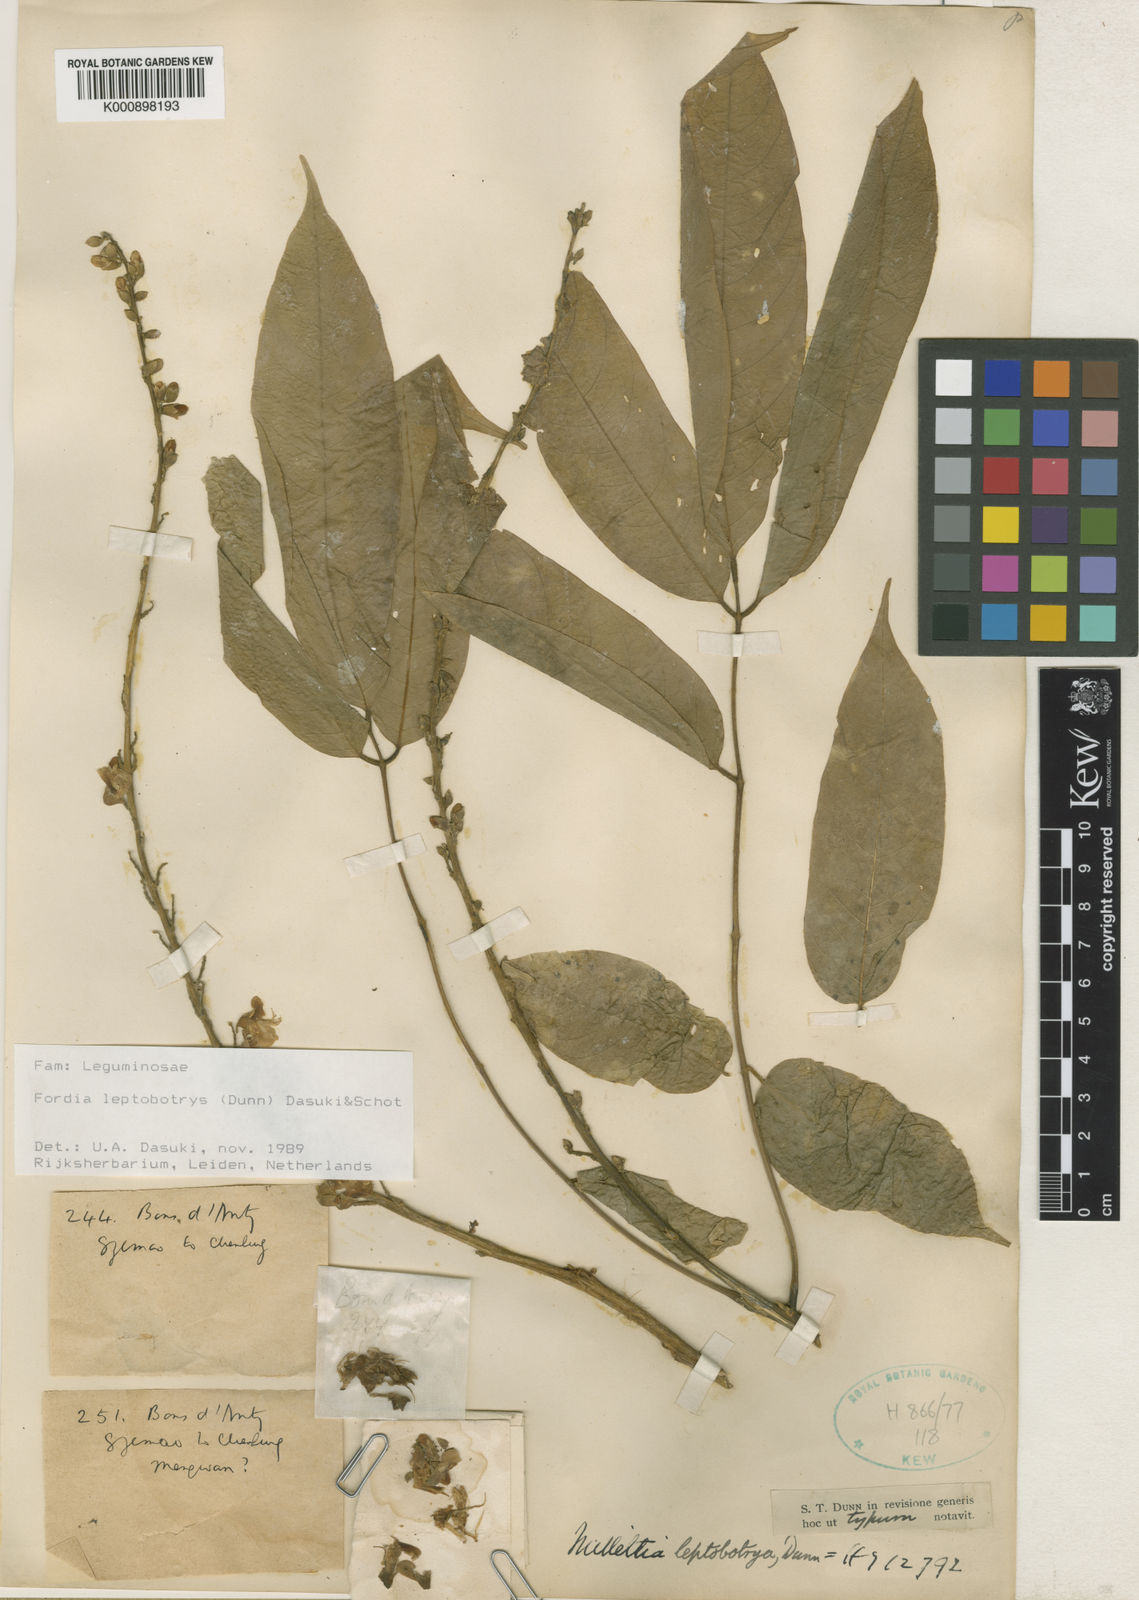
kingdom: Plantae
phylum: Tracheophyta
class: Magnoliopsida
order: Fabales
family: Fabaceae
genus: Imbralyx
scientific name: Imbralyx leptobotrys
